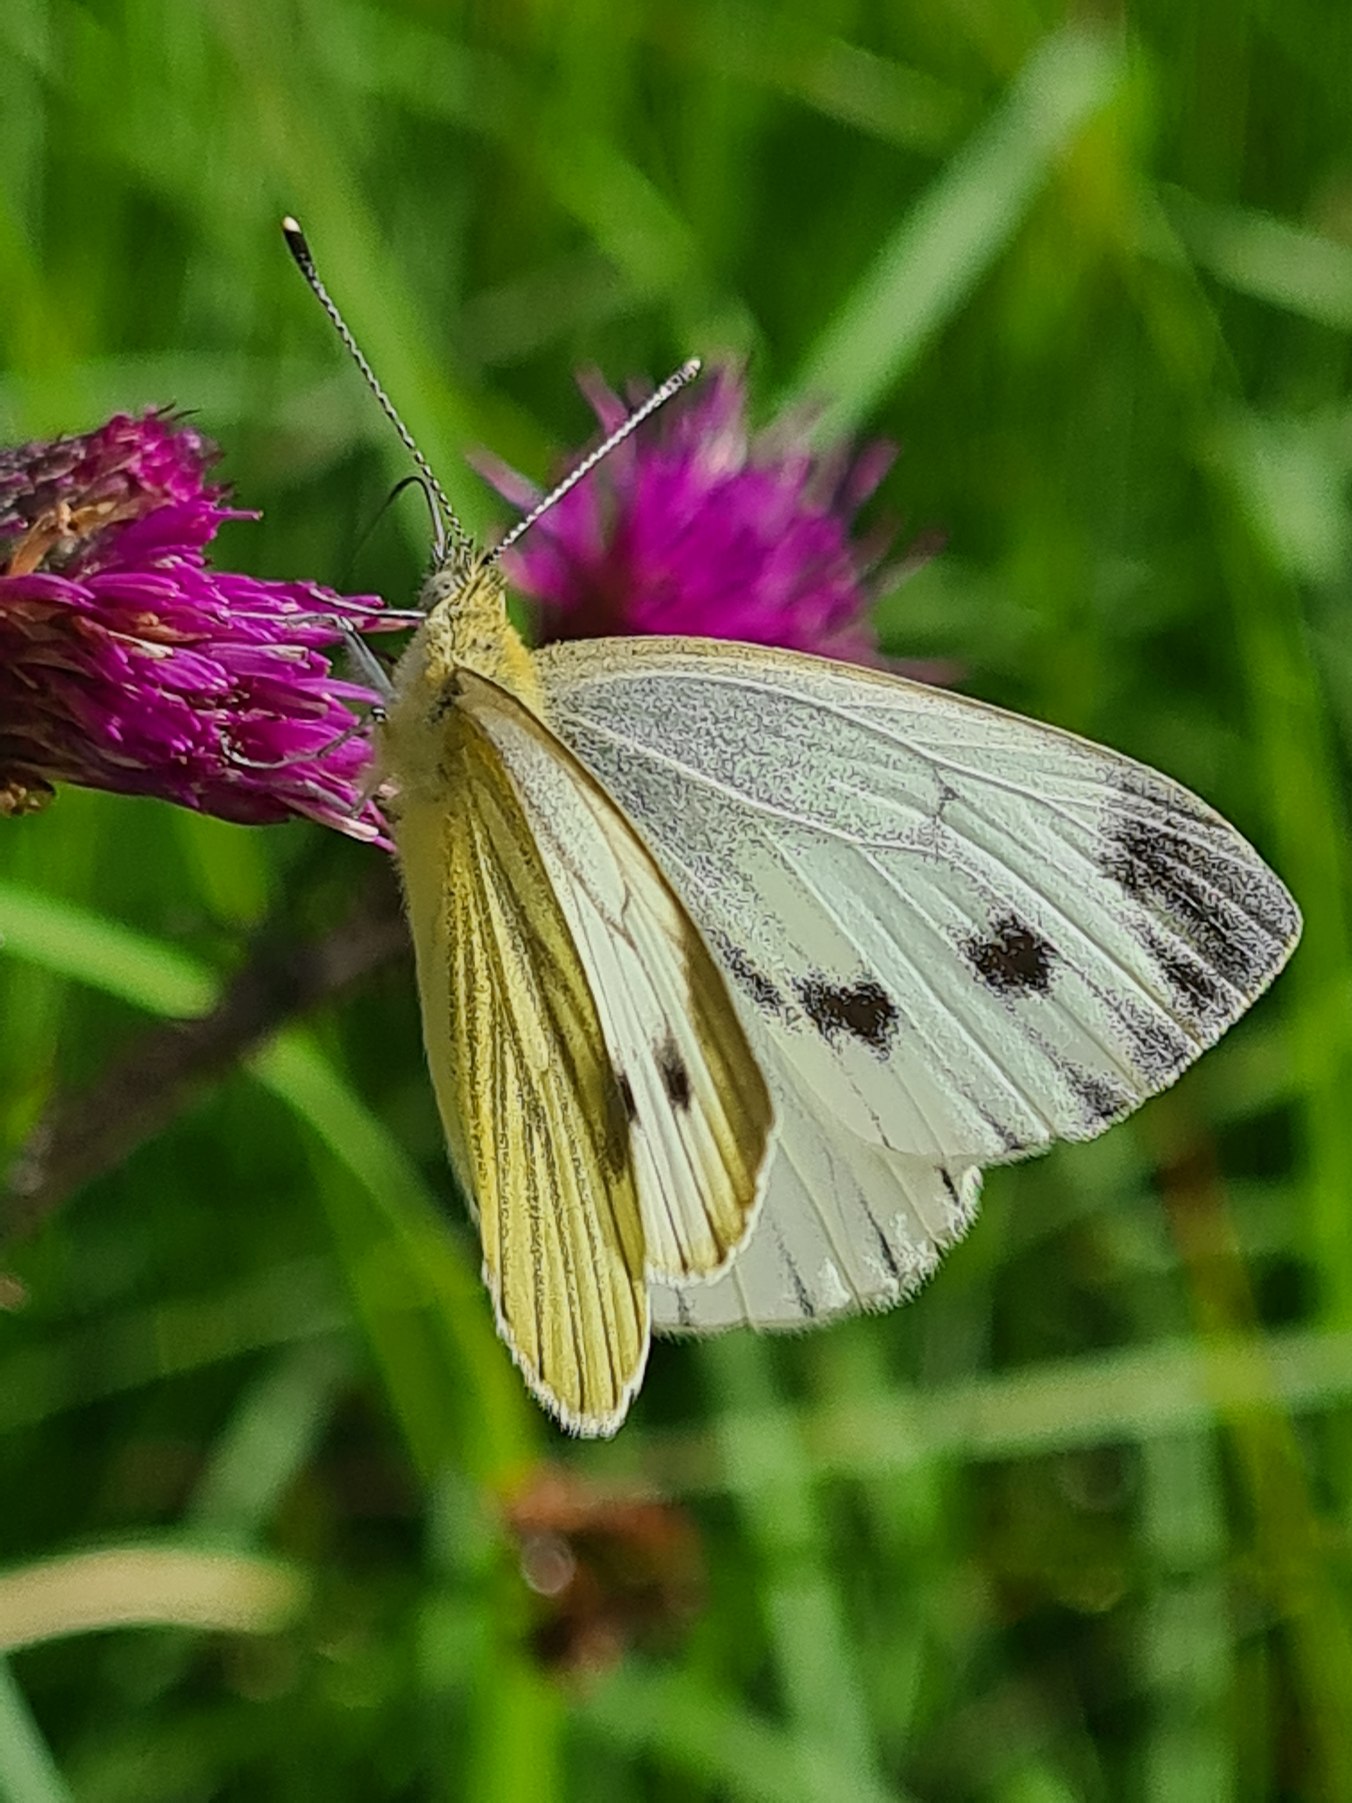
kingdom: Animalia
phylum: Arthropoda
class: Insecta
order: Lepidoptera
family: Pieridae
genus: Pieris
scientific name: Pieris napi
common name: Grønåret kålsommerfugl
